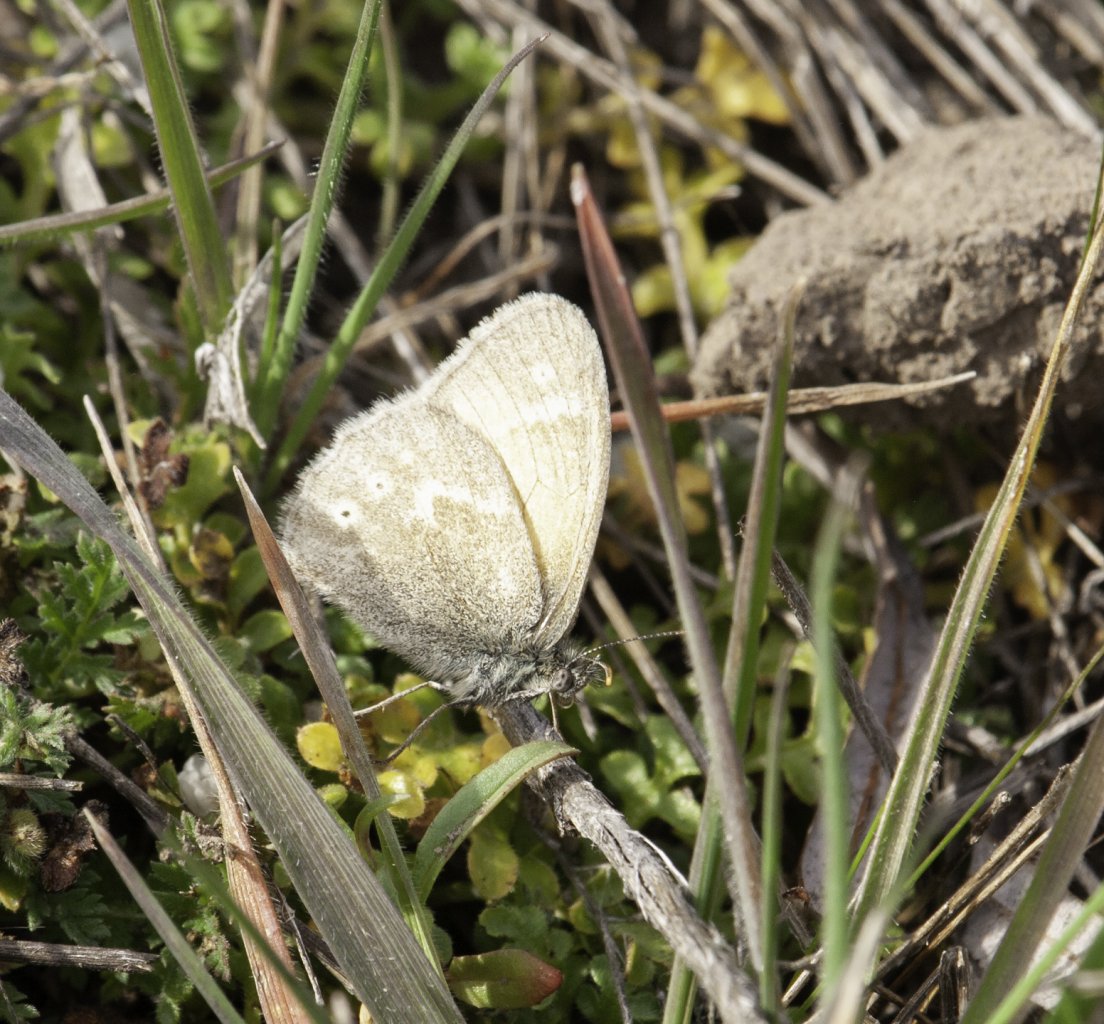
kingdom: Animalia
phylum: Arthropoda
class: Insecta
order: Lepidoptera
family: Nymphalidae
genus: Coenonympha
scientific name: Coenonympha tullia
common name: Large Heath
